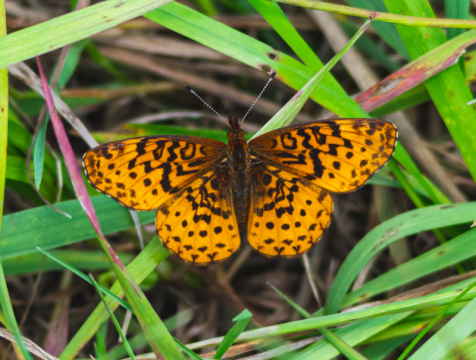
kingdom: Animalia
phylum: Arthropoda
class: Insecta
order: Lepidoptera
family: Nymphalidae
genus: Clossiana
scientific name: Clossiana toddi
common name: Meadow Fritillary
